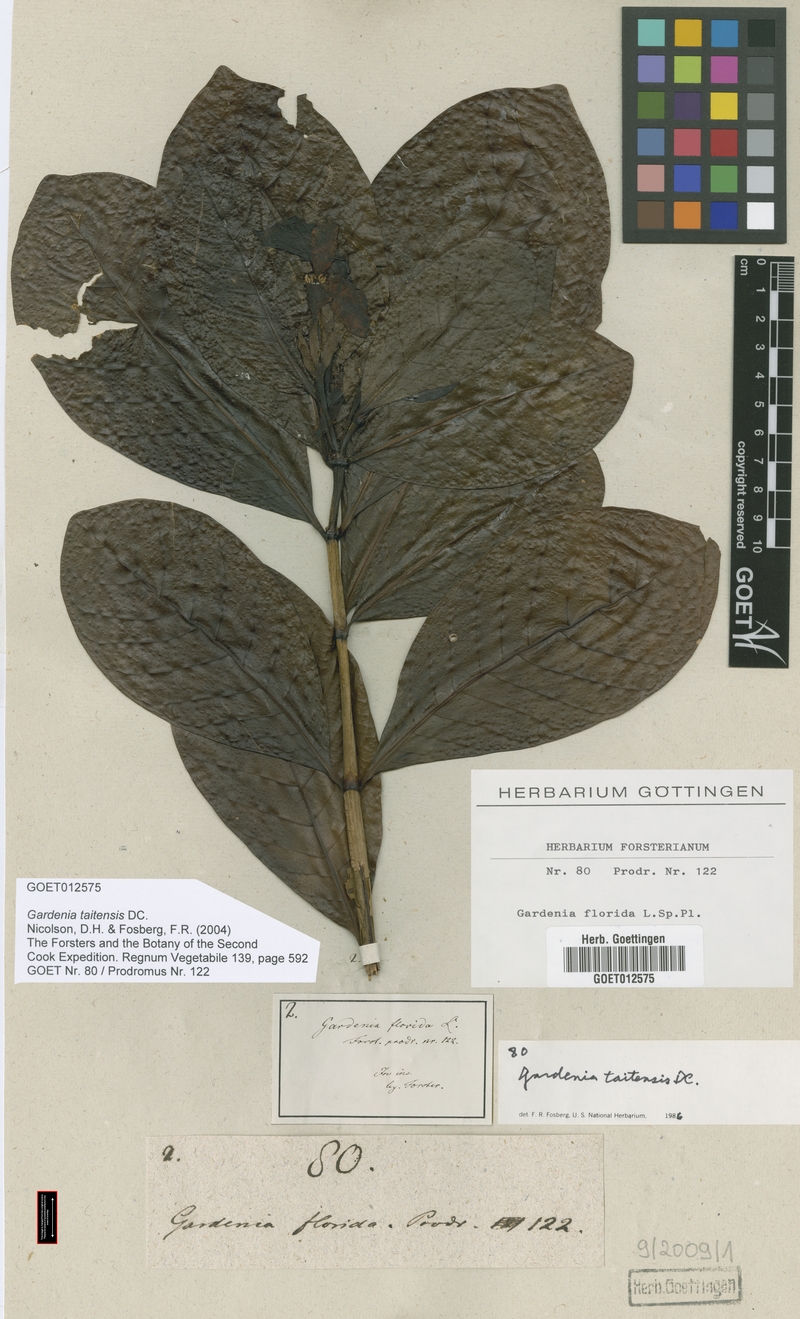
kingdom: Plantae
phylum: Tracheophyta
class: Magnoliopsida
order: Gentianales
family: Rubiaceae
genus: Gardenia
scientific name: Gardenia taitensis
